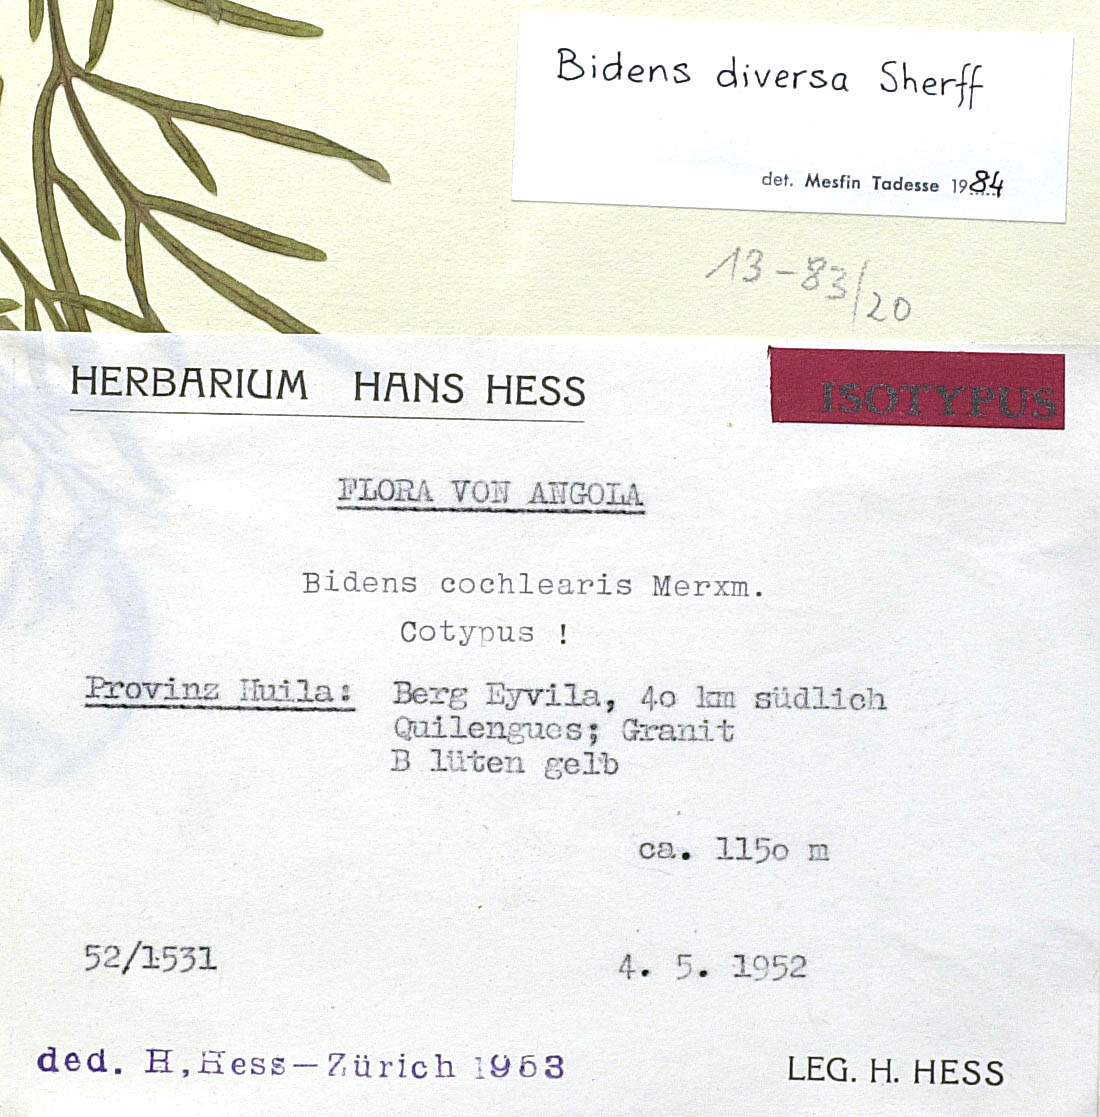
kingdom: Plantae
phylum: Tracheophyta
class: Magnoliopsida
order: Asterales
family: Asteraceae
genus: Bidens
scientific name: Bidens diversa
